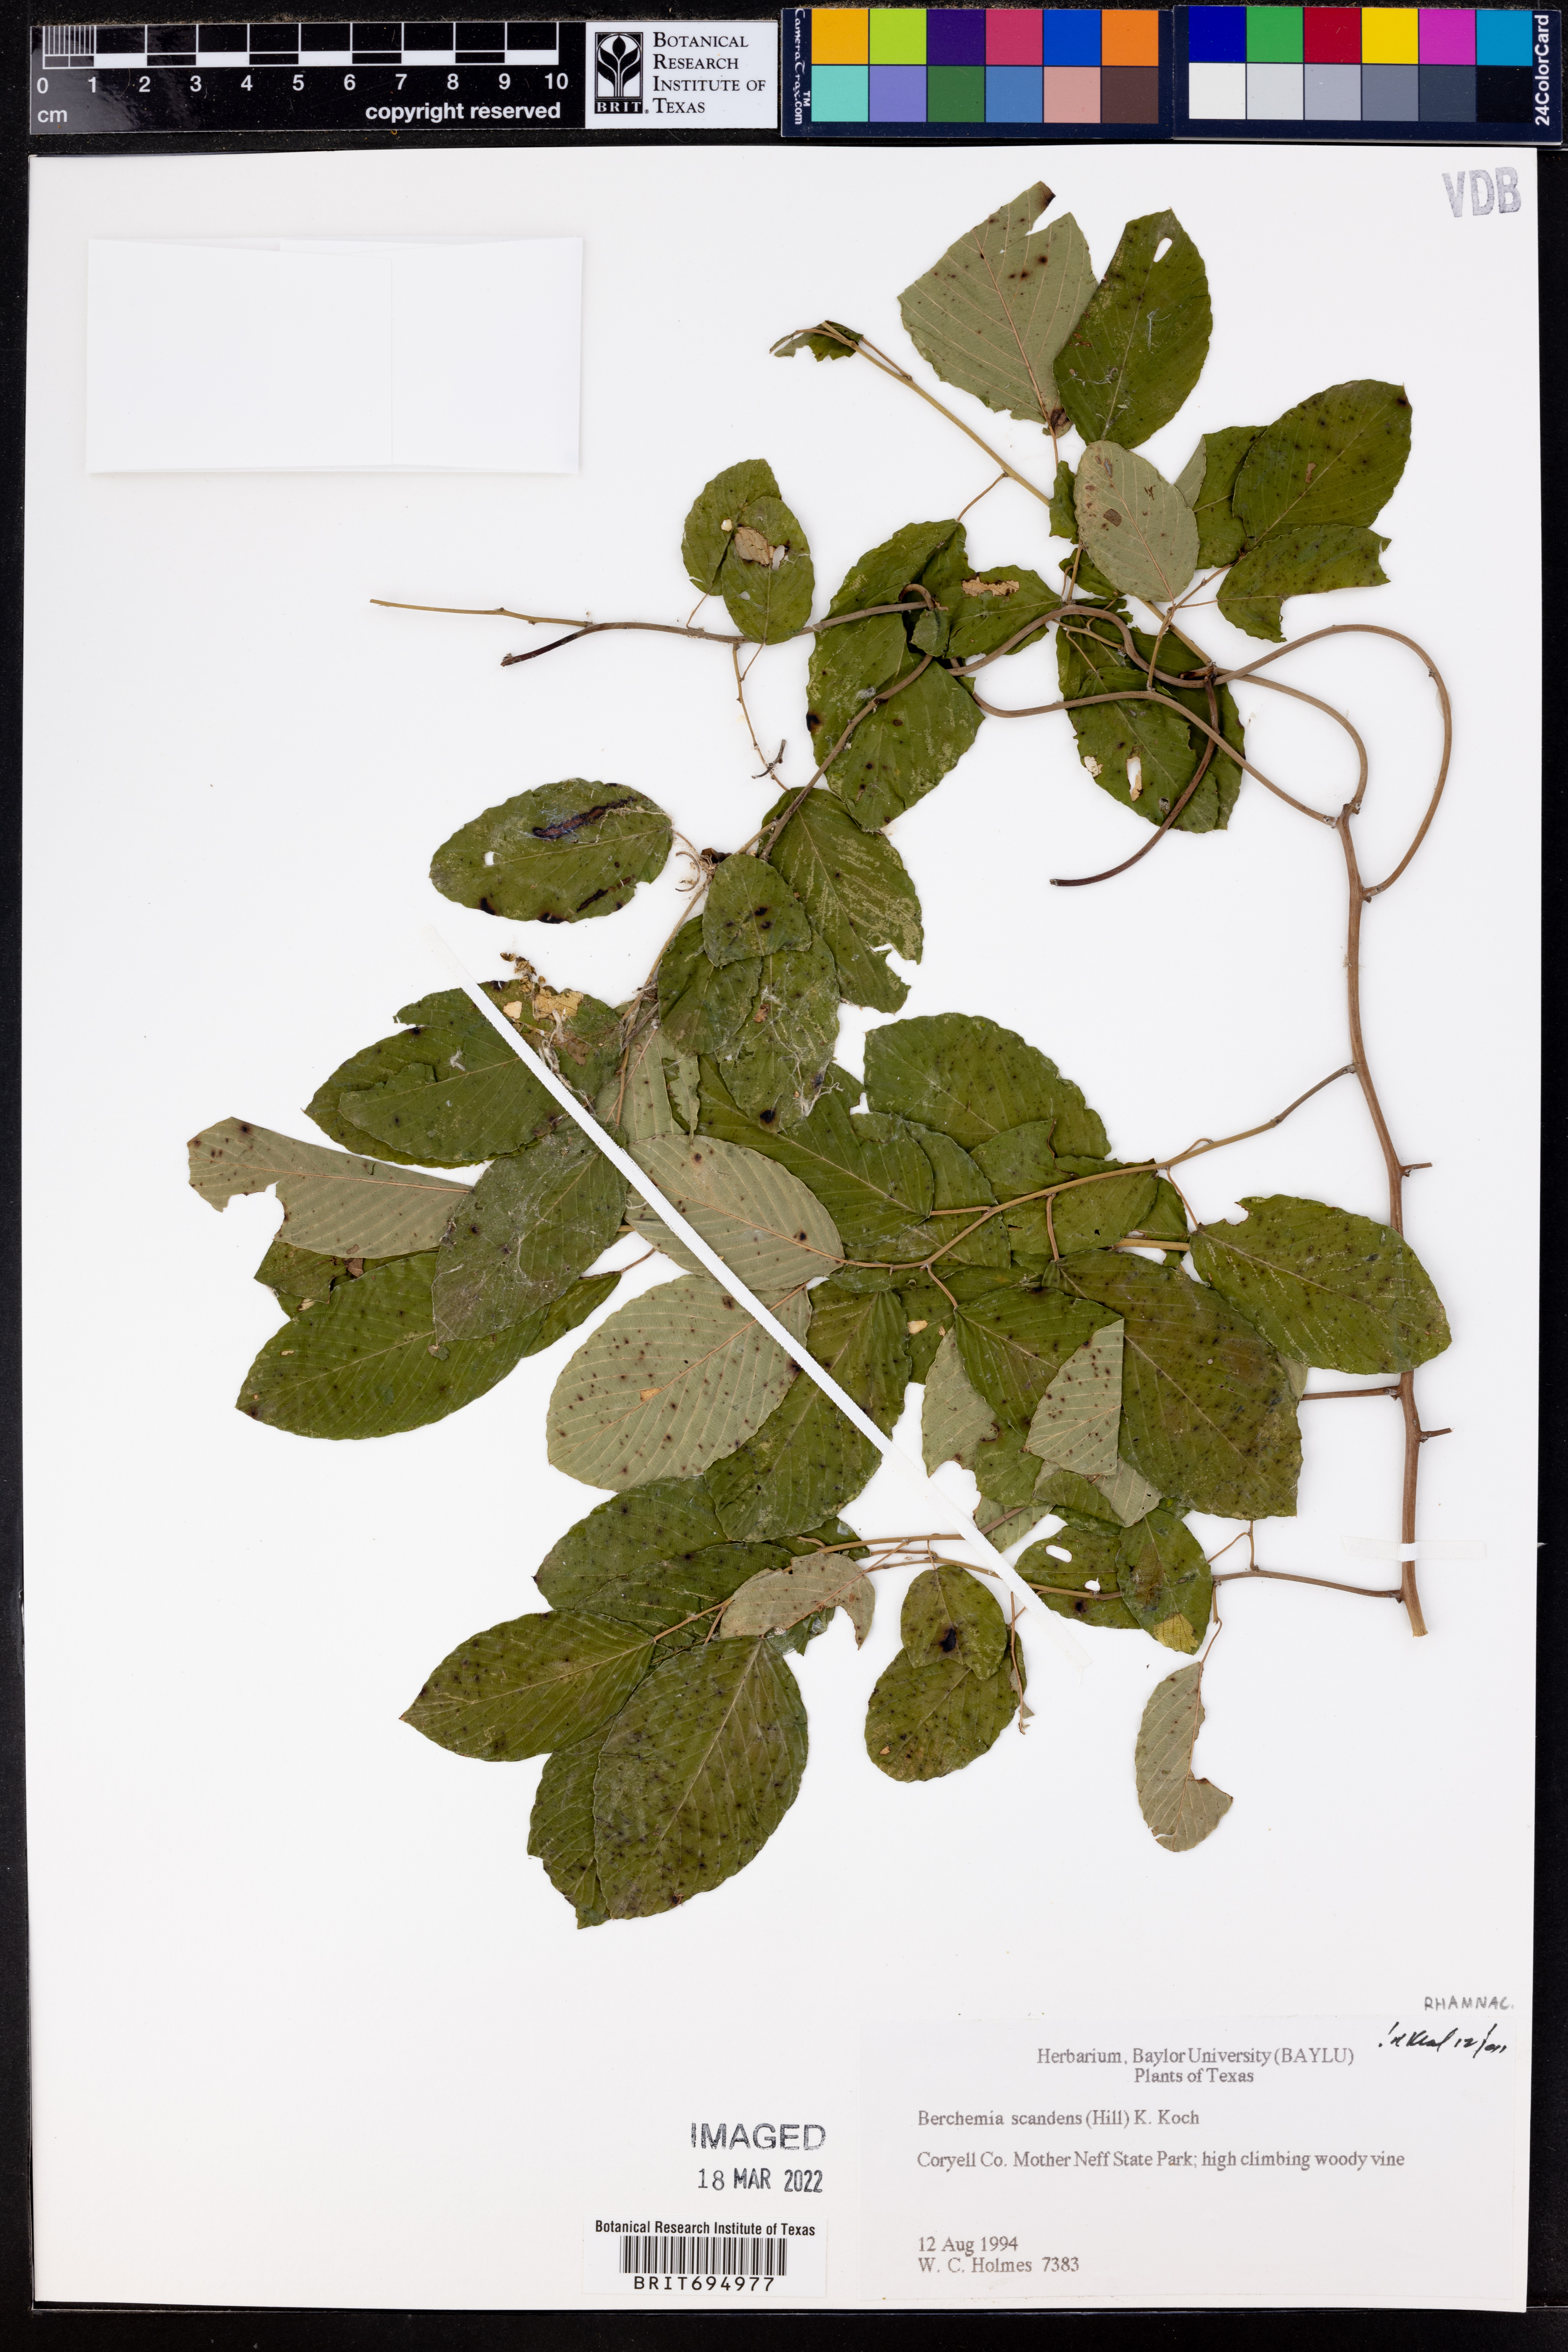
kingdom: Plantae
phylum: Tracheophyta
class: Magnoliopsida
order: Rosales
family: Rhamnaceae
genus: Berchemia
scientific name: Berchemia scandens
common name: Supplejack
